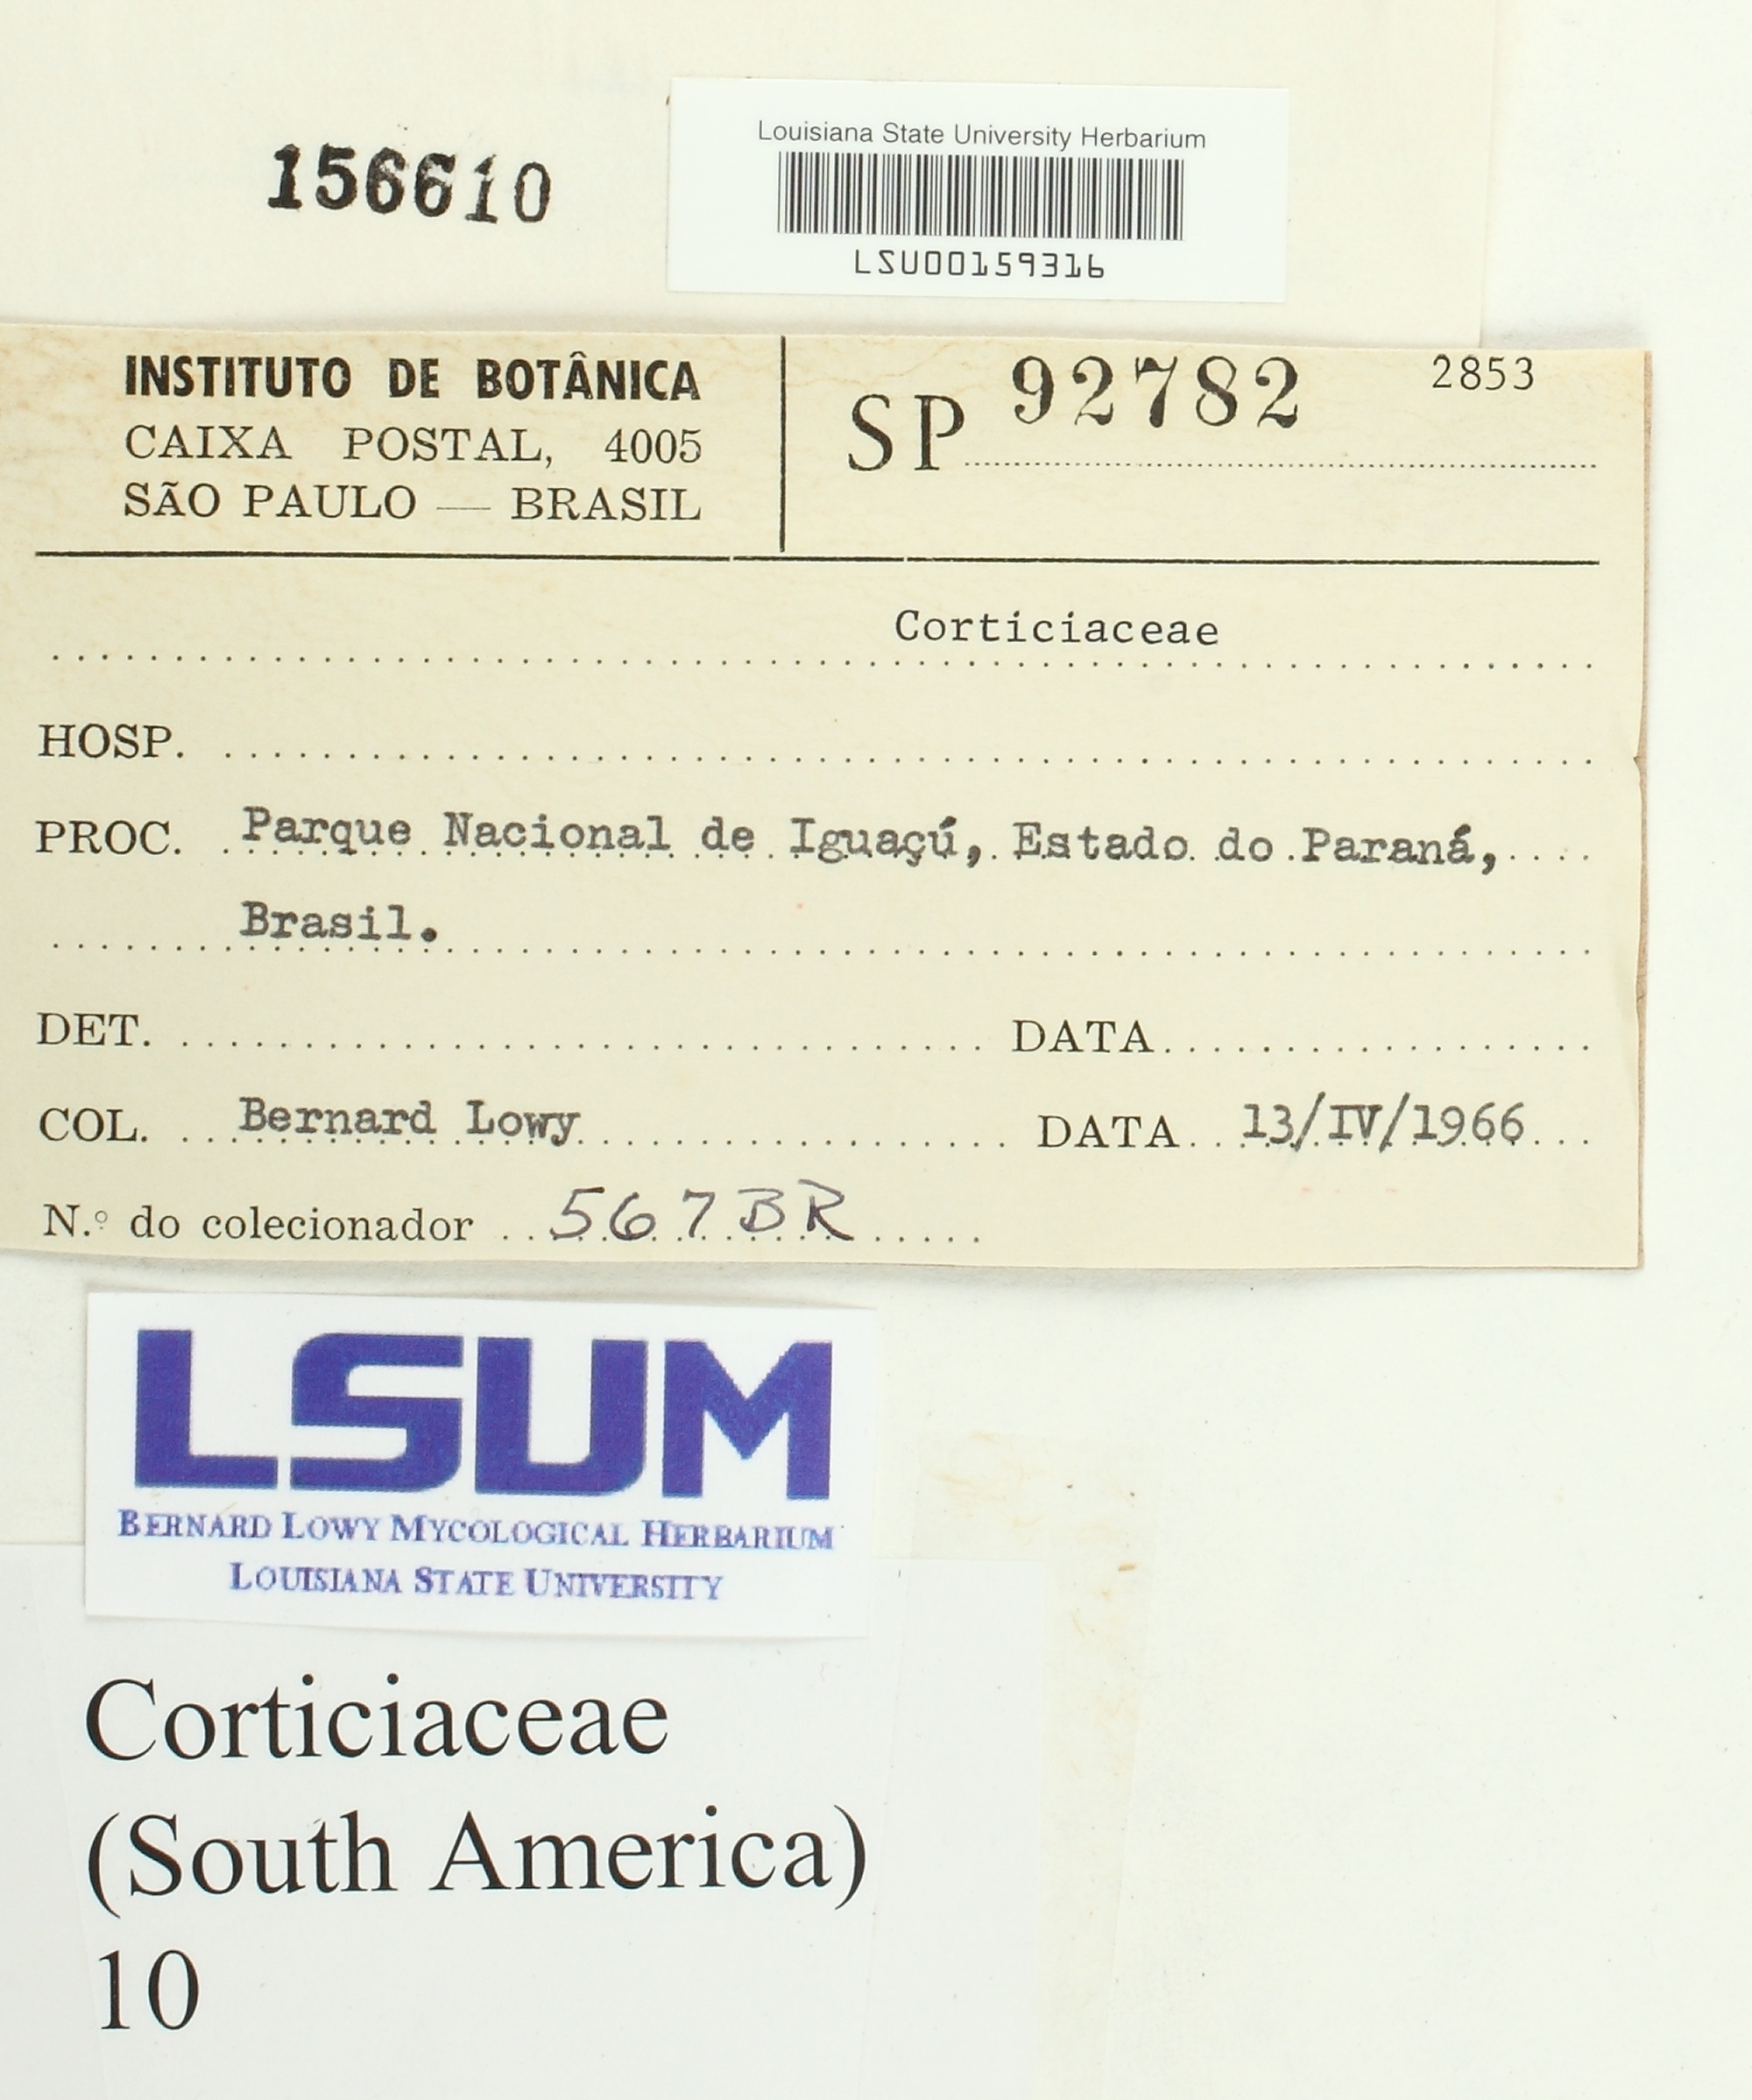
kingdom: Fungi
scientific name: Fungi
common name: Fungi
